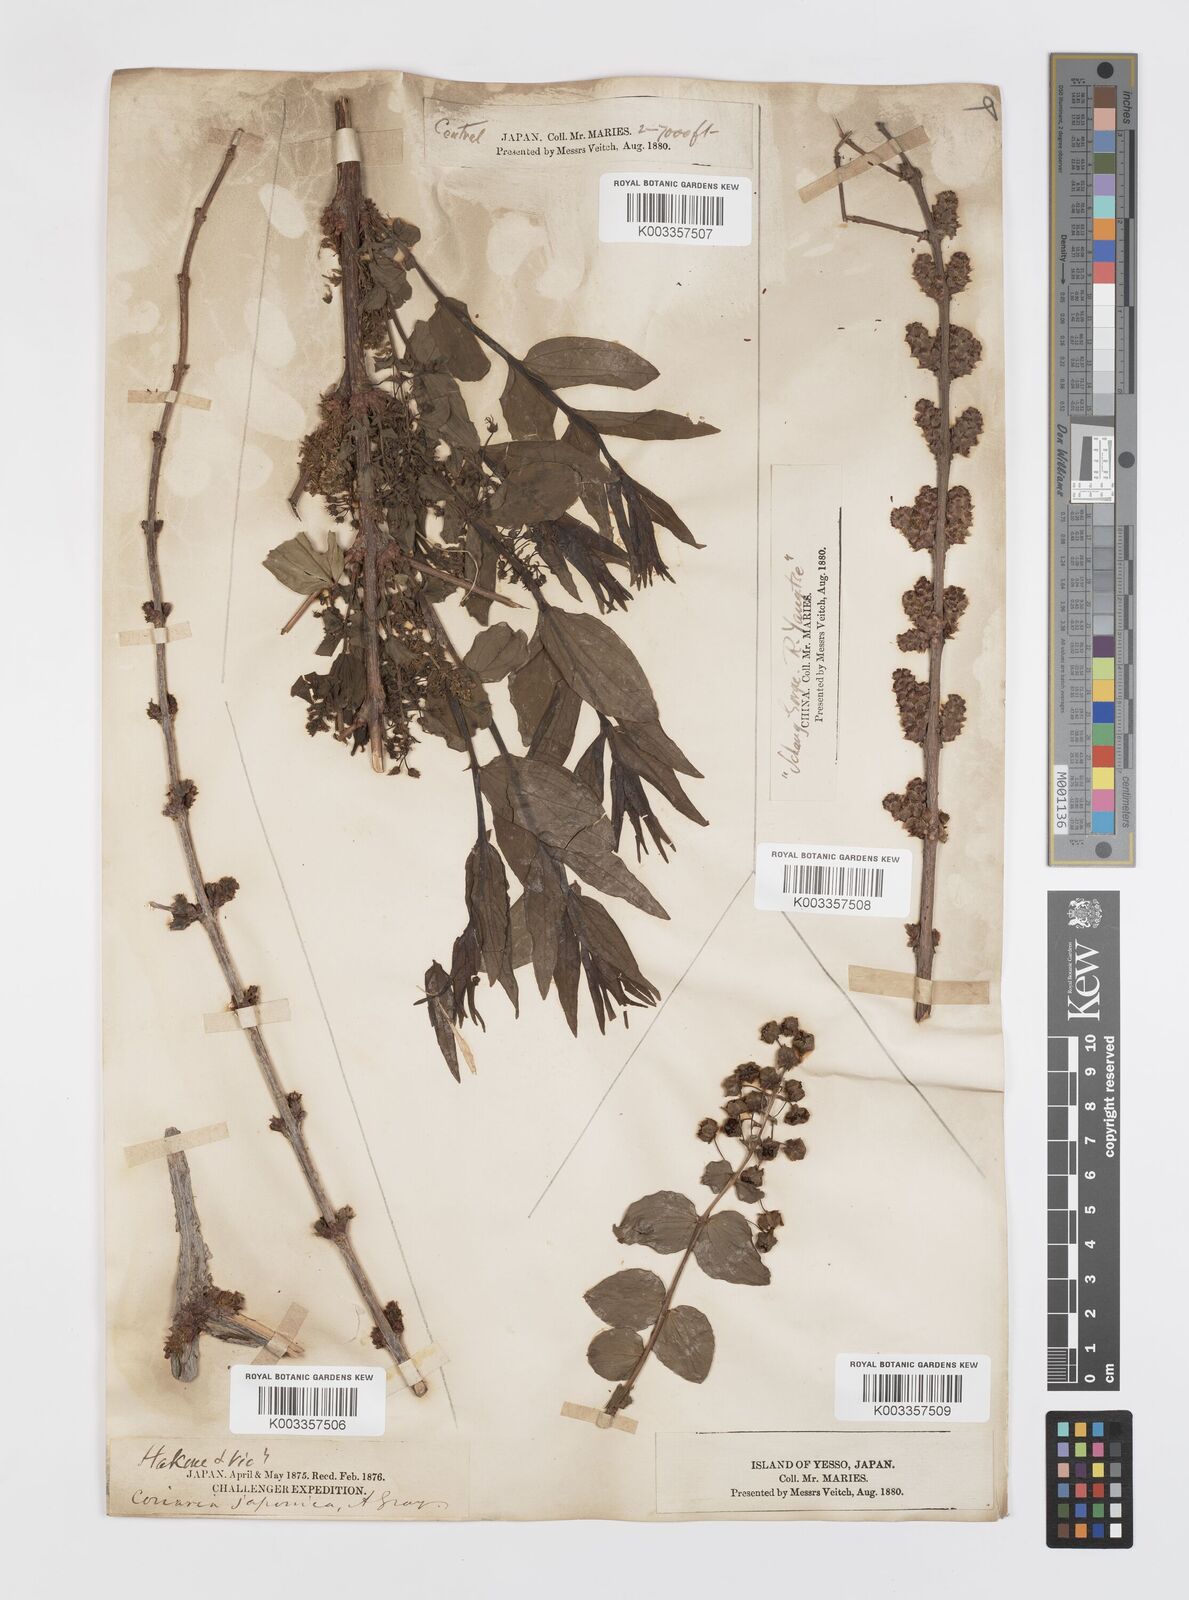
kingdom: Plantae
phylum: Tracheophyta
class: Magnoliopsida
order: Cucurbitales
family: Coriariaceae
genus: Coriaria
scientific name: Coriaria japonica
